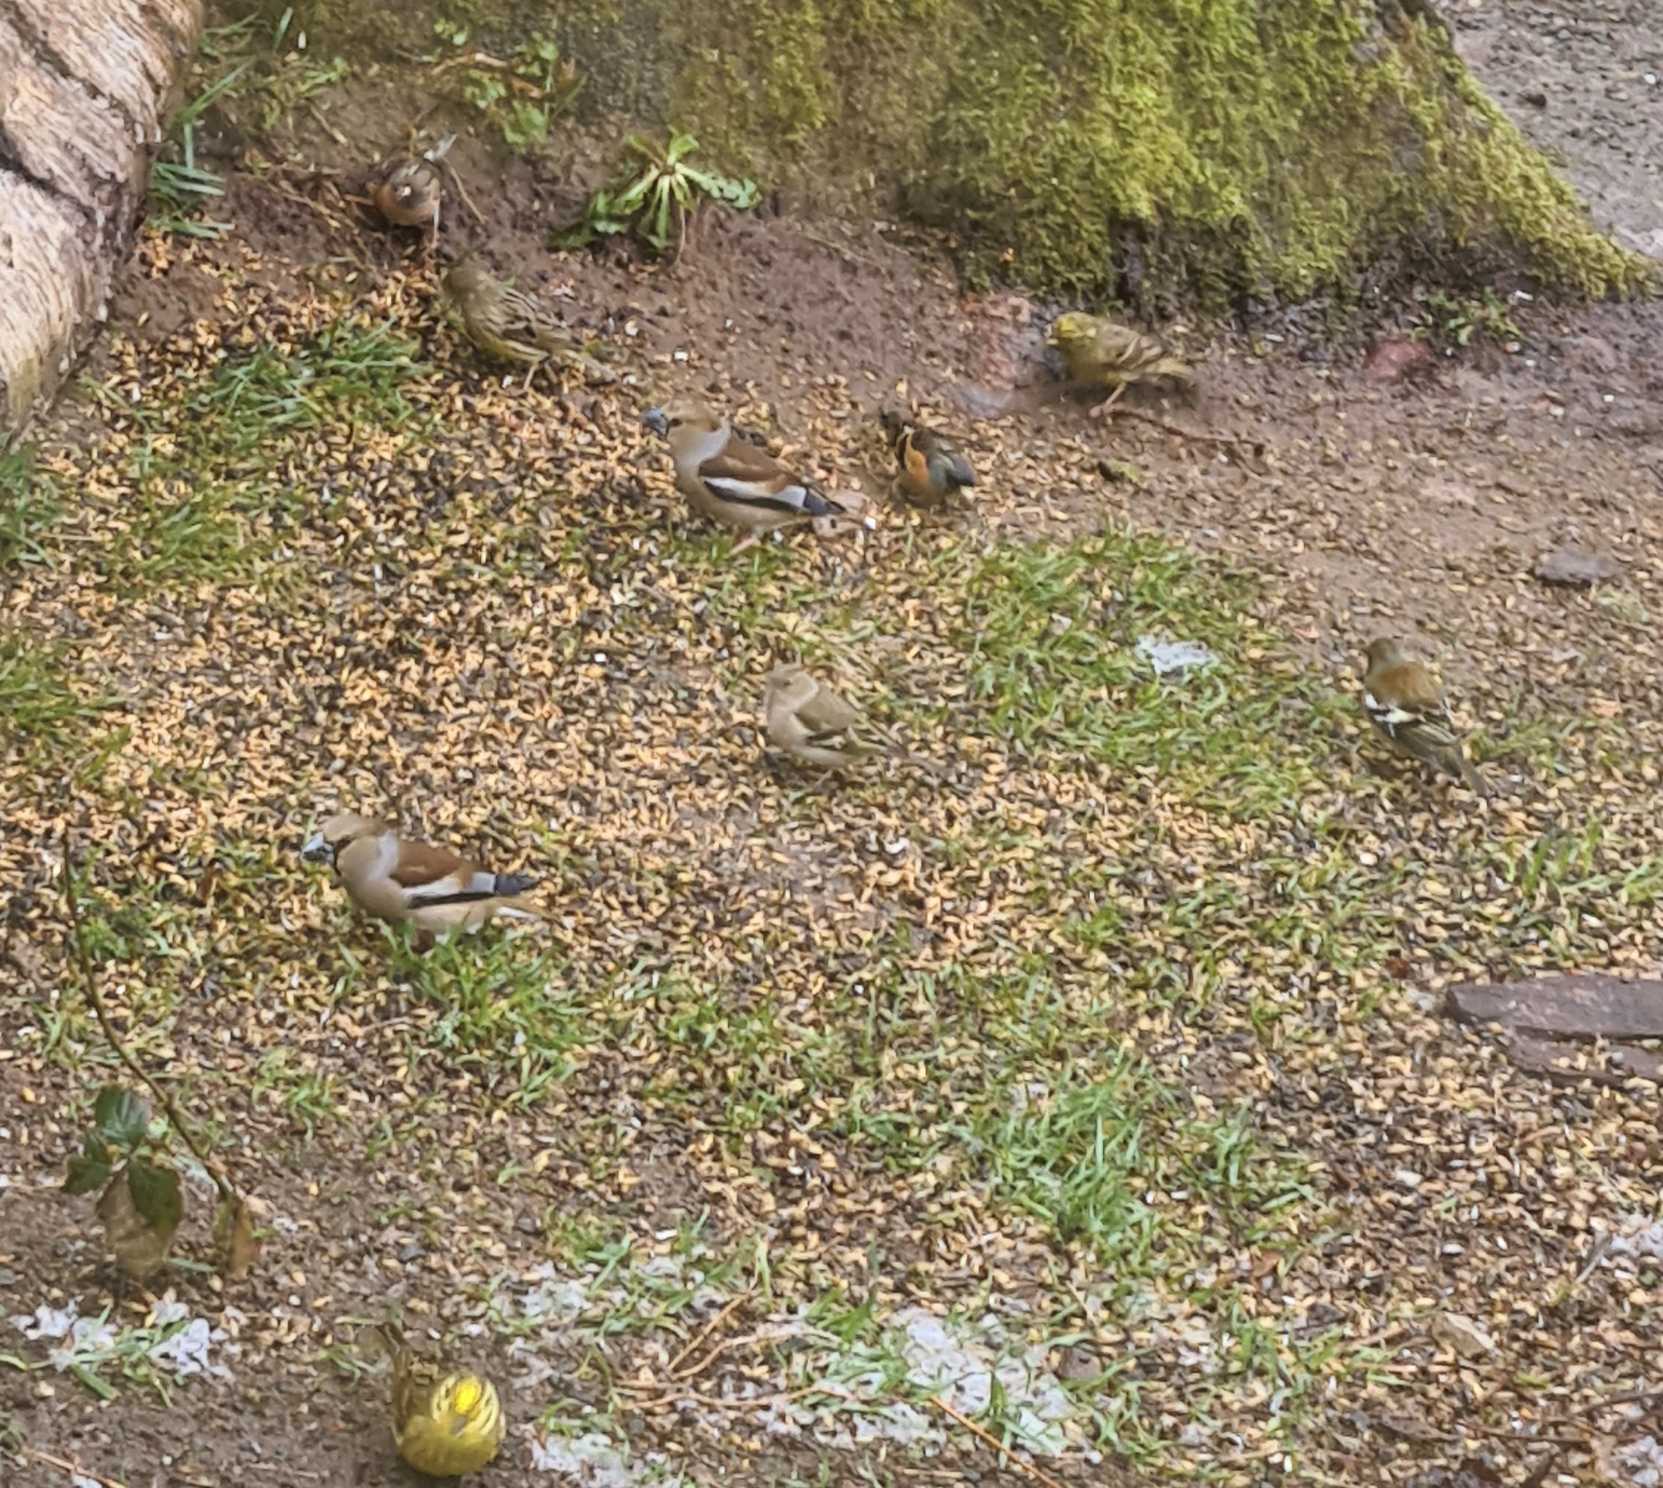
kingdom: Animalia
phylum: Chordata
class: Aves
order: Passeriformes
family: Fringillidae
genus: Coccothraustes
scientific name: Coccothraustes coccothraustes
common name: Kernebider
